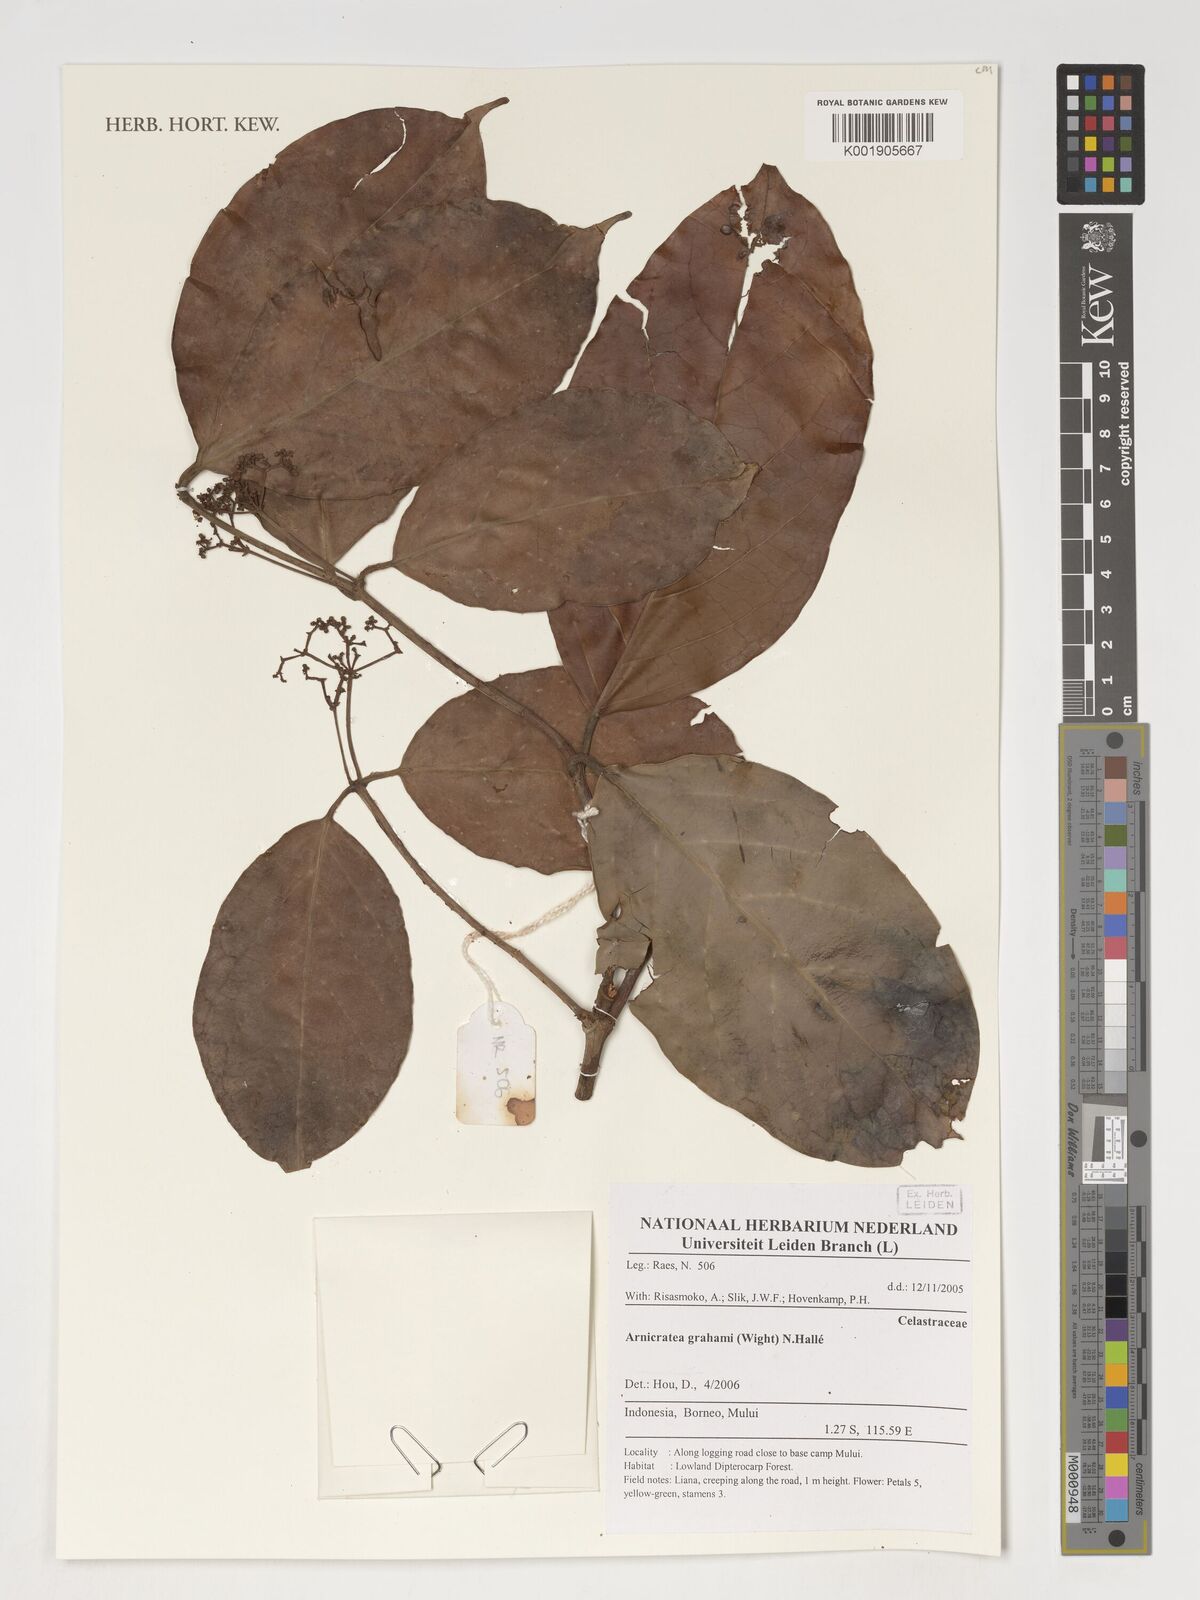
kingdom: Plantae
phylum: Tracheophyta
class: Magnoliopsida
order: Celastrales
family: Celastraceae
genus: Arnicratea
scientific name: Arnicratea grahamii
